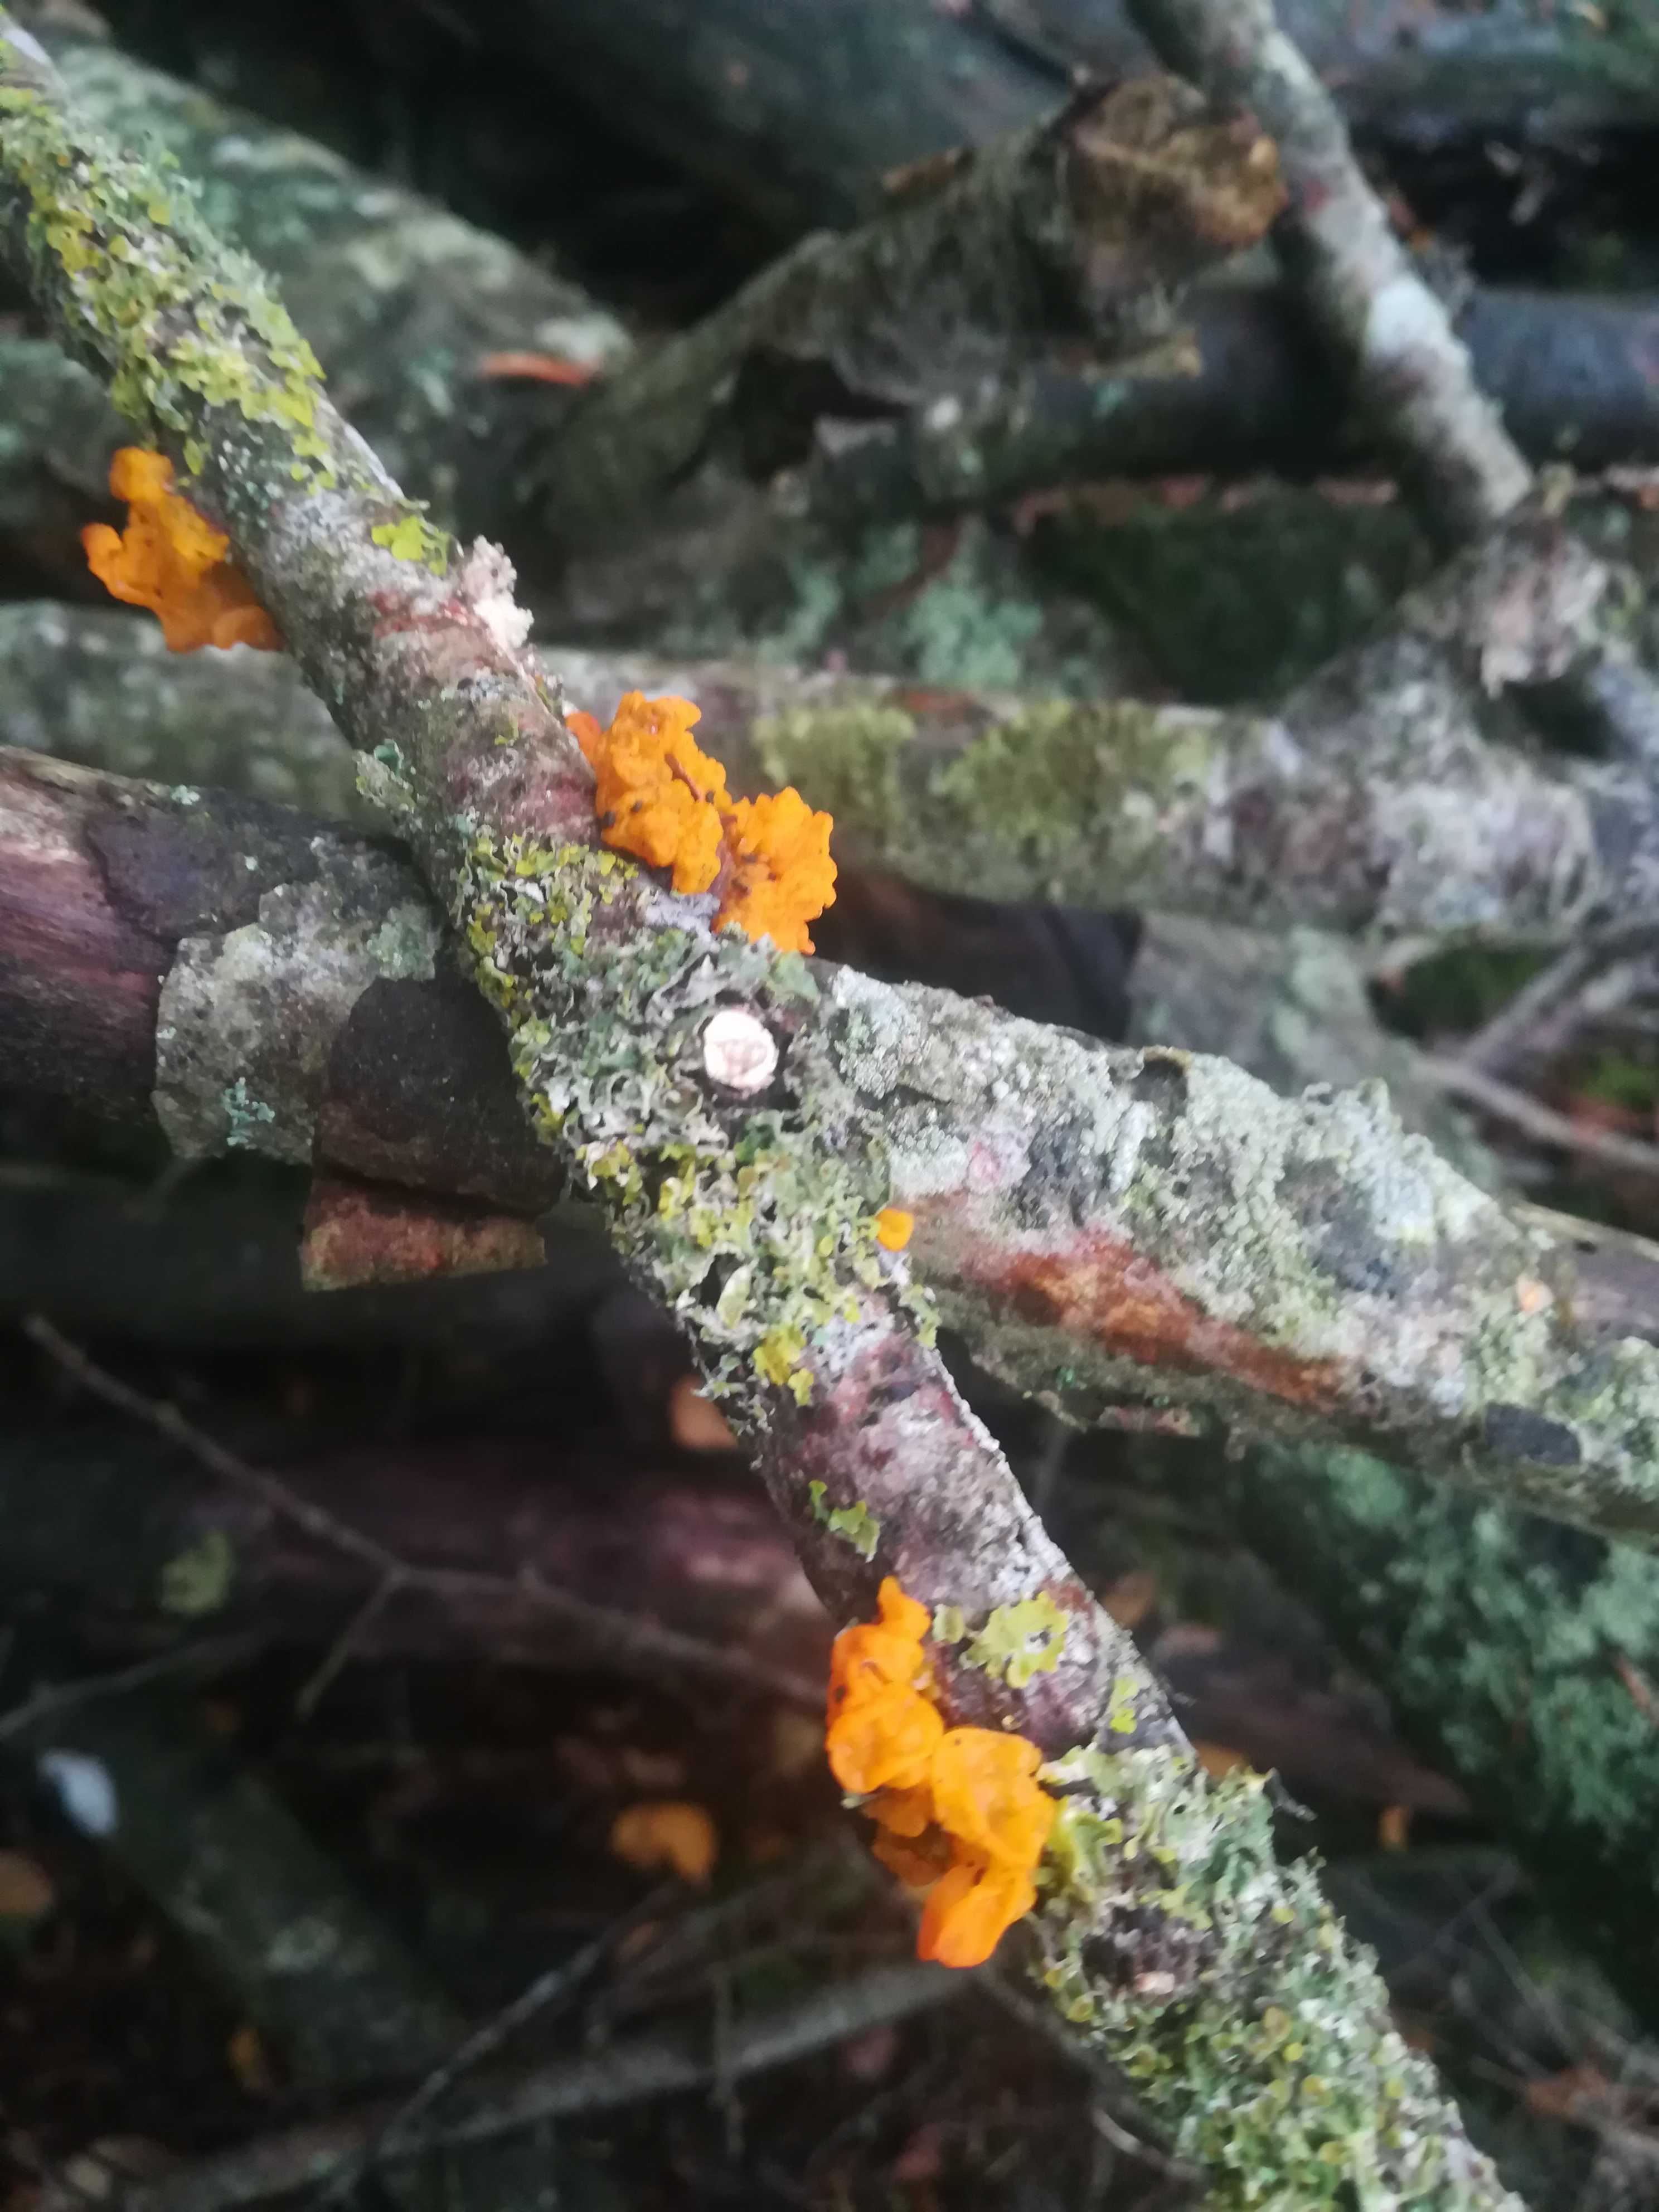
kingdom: Fungi
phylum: Basidiomycota
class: Tremellomycetes
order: Tremellales
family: Tremellaceae
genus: Tremella
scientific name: Tremella mesenterica
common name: gul bævresvamp
